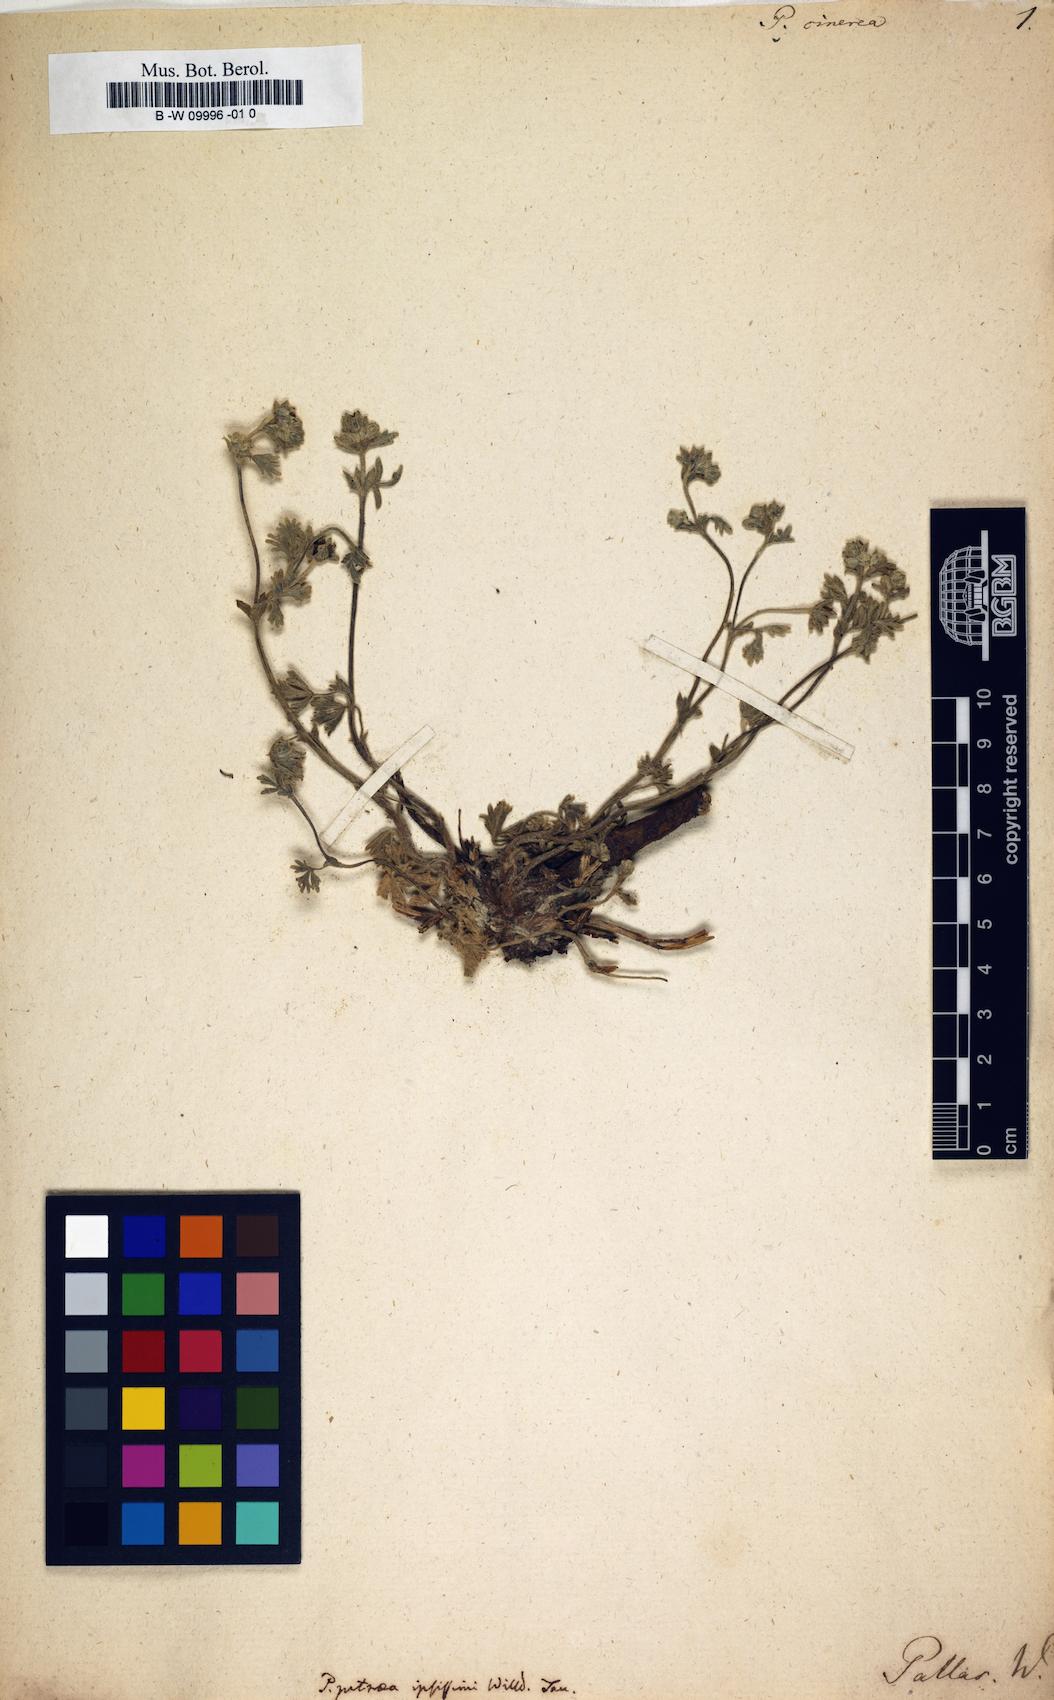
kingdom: Plantae
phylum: Tracheophyta
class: Magnoliopsida
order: Rosales
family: Rosaceae
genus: Potentilla
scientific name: Potentilla cinerea
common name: Ashy cinquefoil
